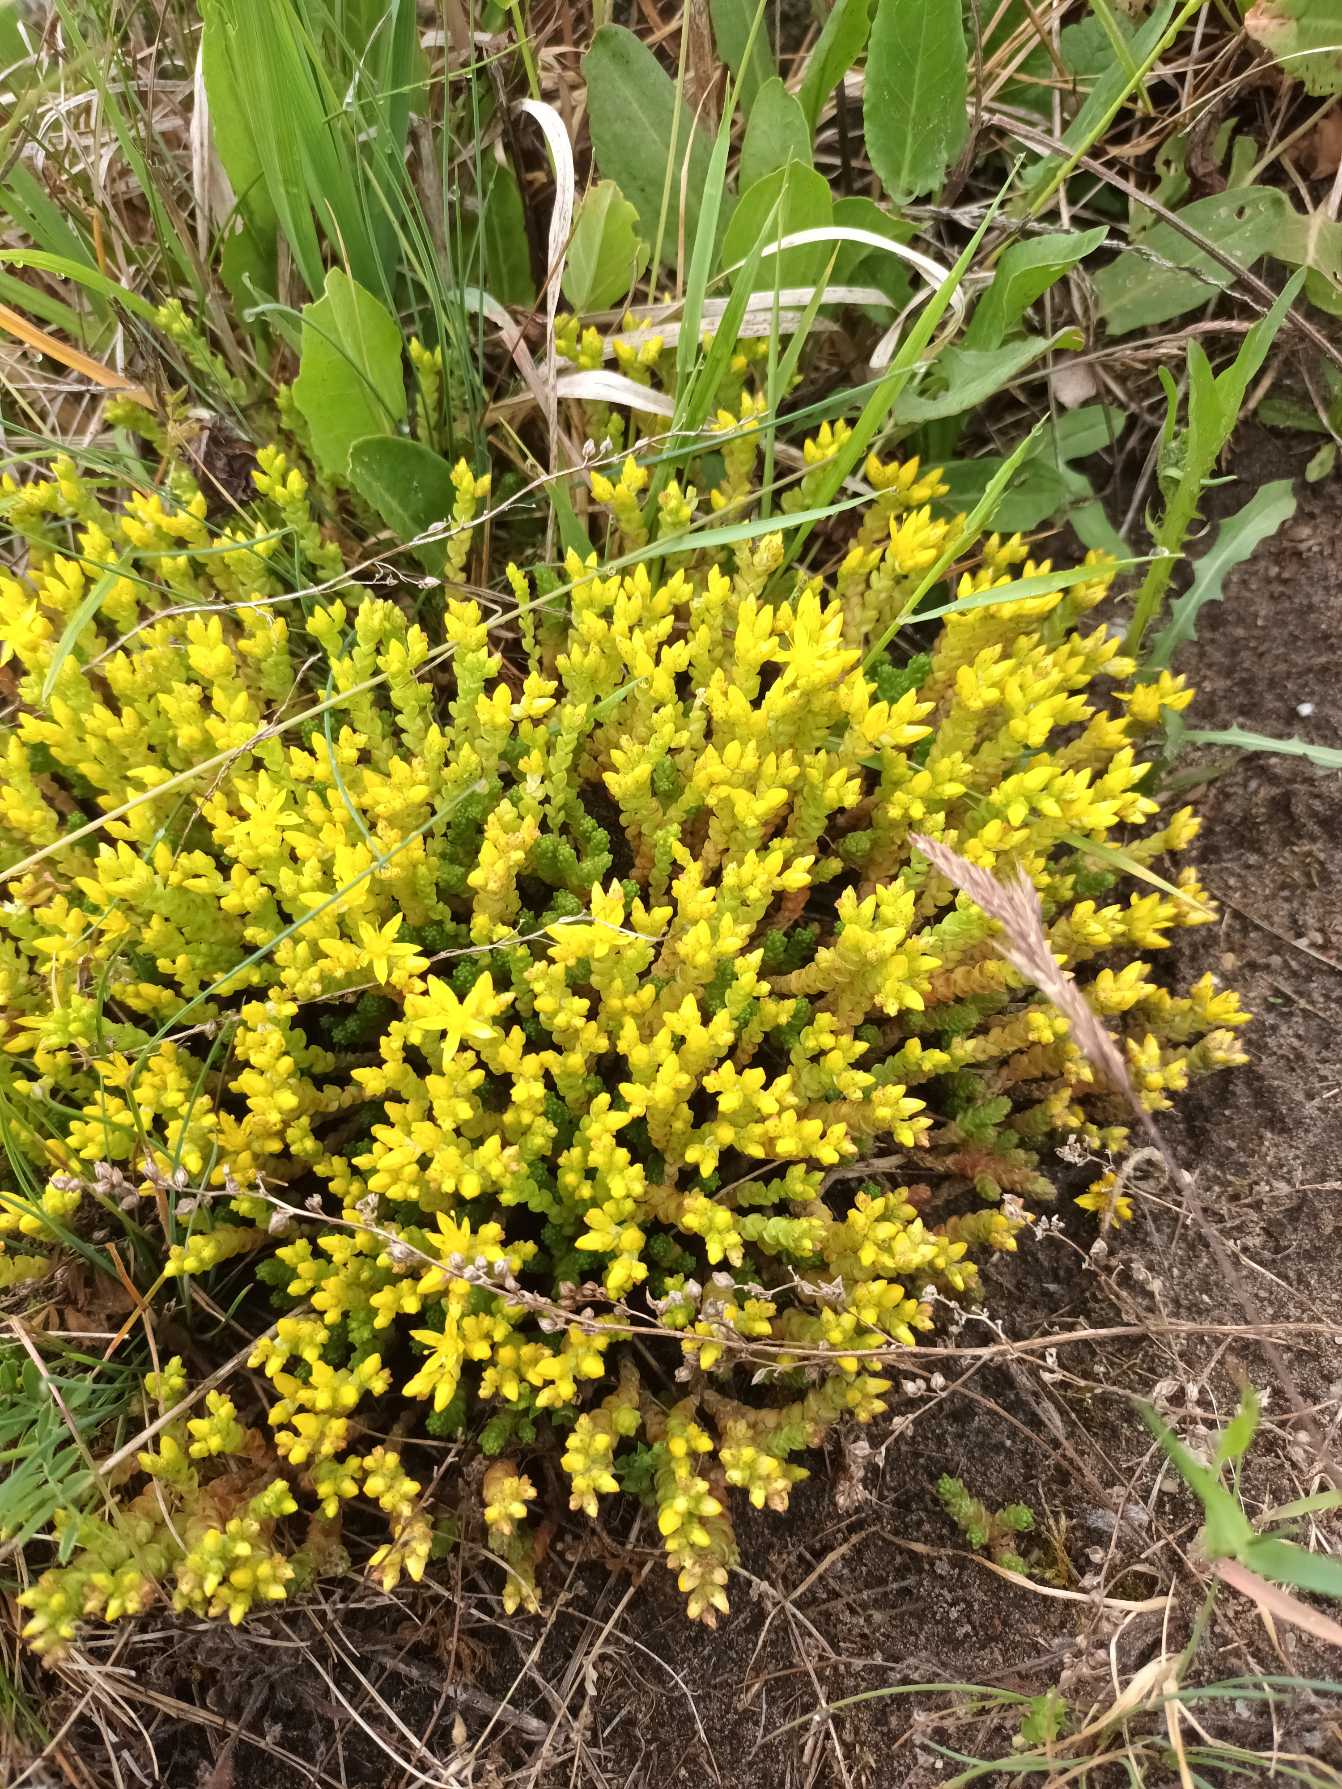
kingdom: Plantae
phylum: Tracheophyta
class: Magnoliopsida
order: Saxifragales
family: Crassulaceae
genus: Sedum
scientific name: Sedum acre
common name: Bidende stenurt
